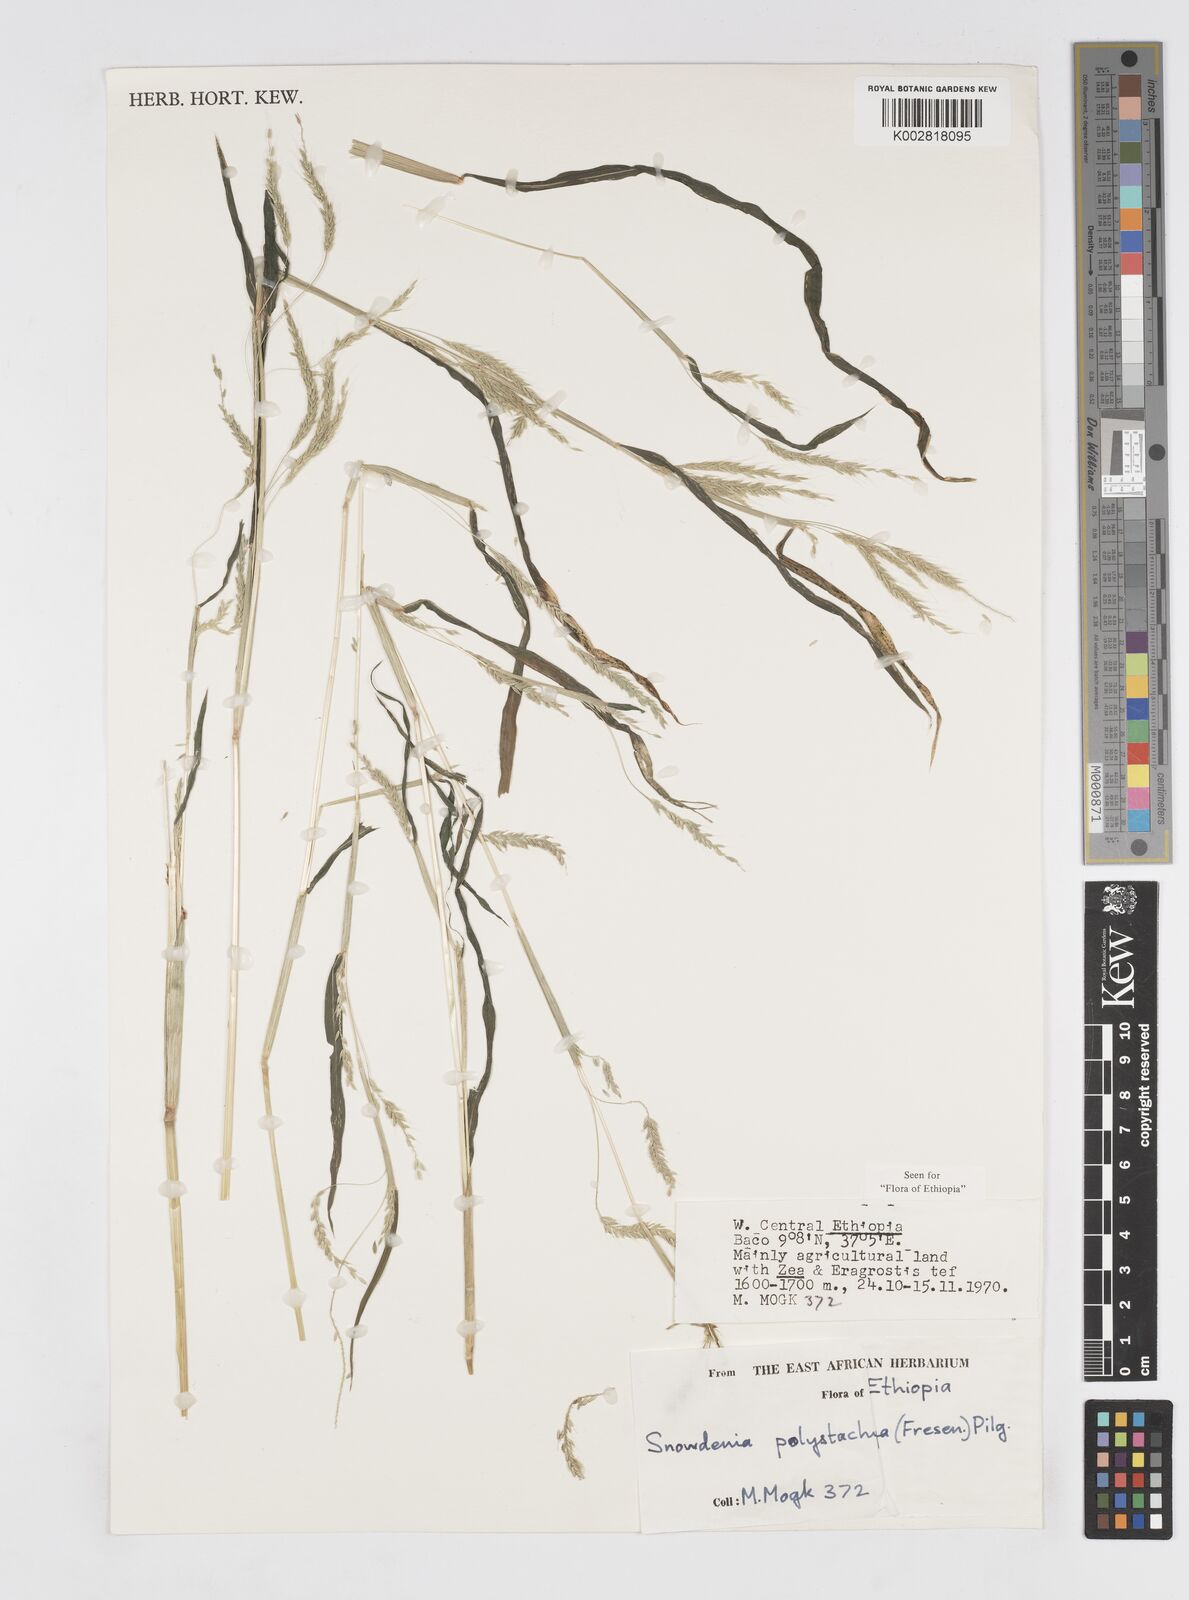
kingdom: Plantae
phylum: Tracheophyta
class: Liliopsida
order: Poales
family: Poaceae
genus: Snowdenia
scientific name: Snowdenia polystachya
